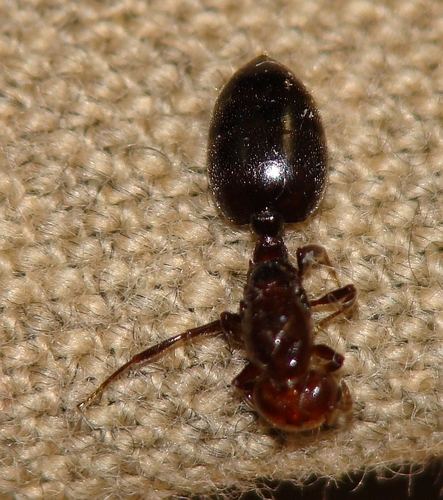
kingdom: Animalia
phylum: Arthropoda
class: Insecta
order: Hymenoptera
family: Formicidae
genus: Crematogaster
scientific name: Crematogaster scutellaris
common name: Fourmi du liège
